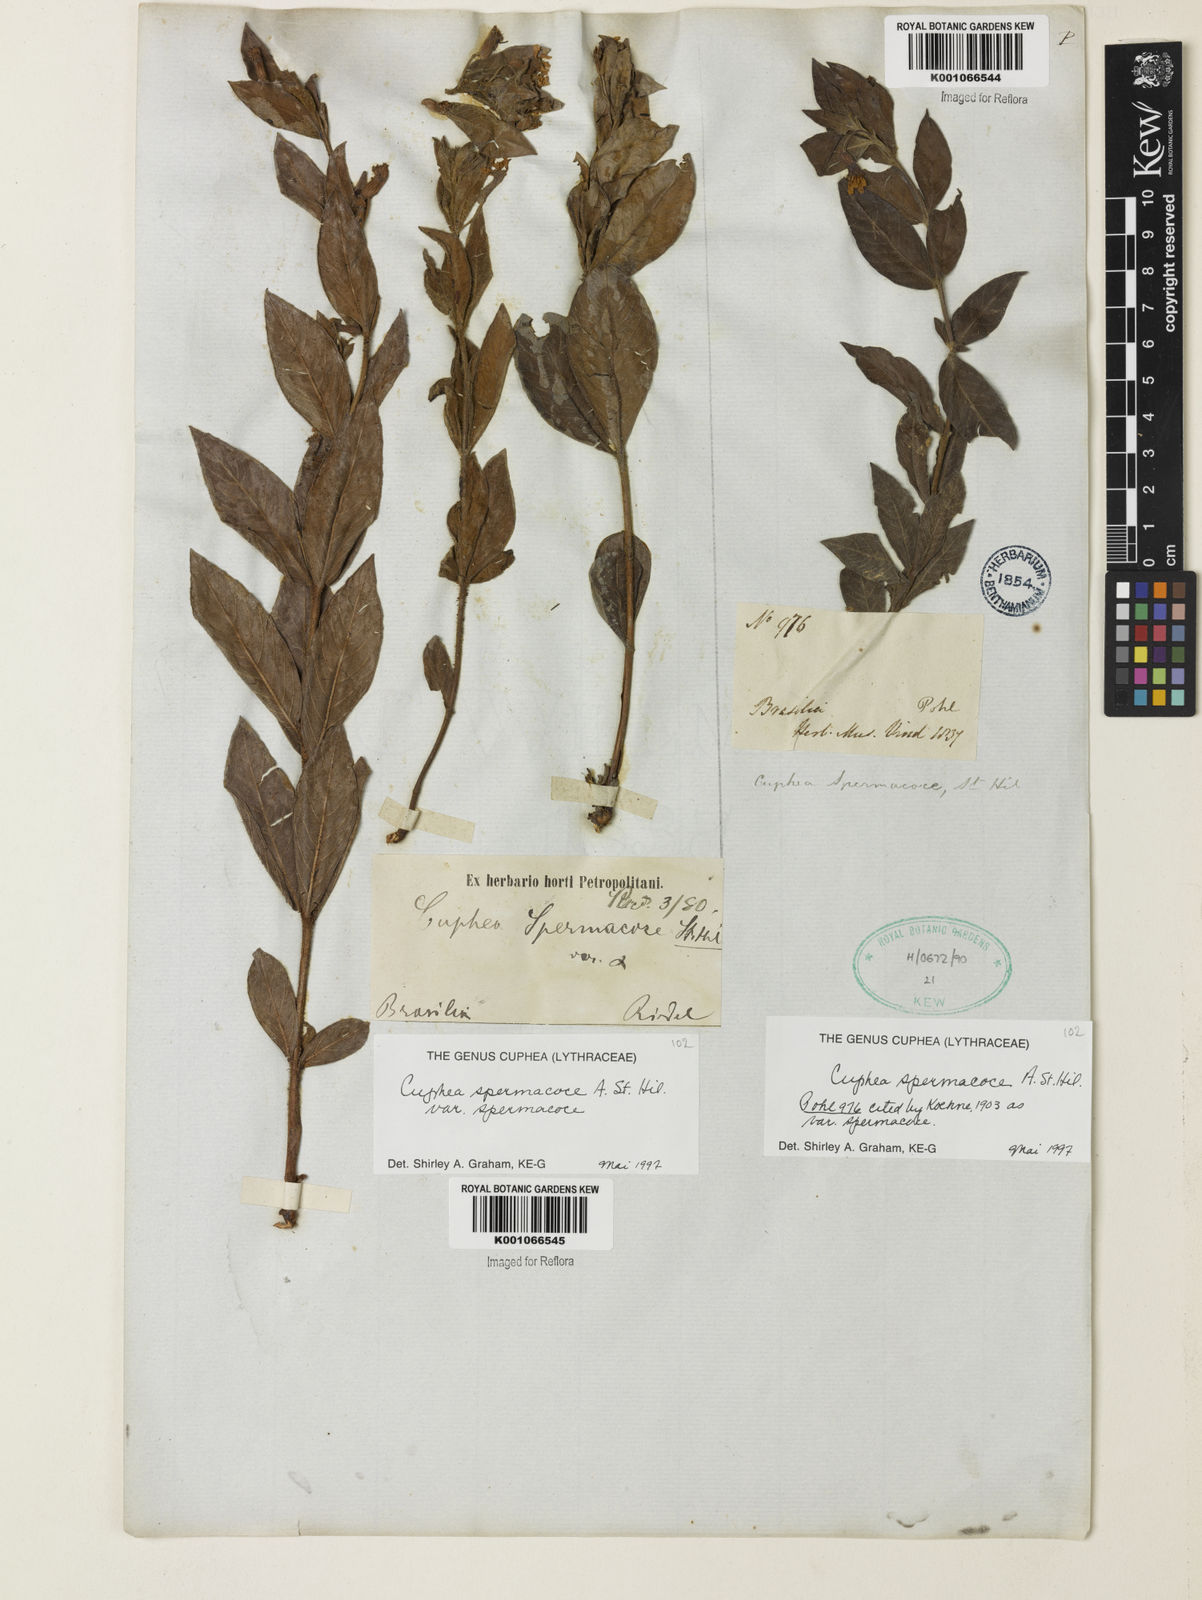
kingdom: Plantae
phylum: Tracheophyta
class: Magnoliopsida
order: Myrtales
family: Lythraceae
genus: Cuphea
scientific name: Cuphea spermacoce
